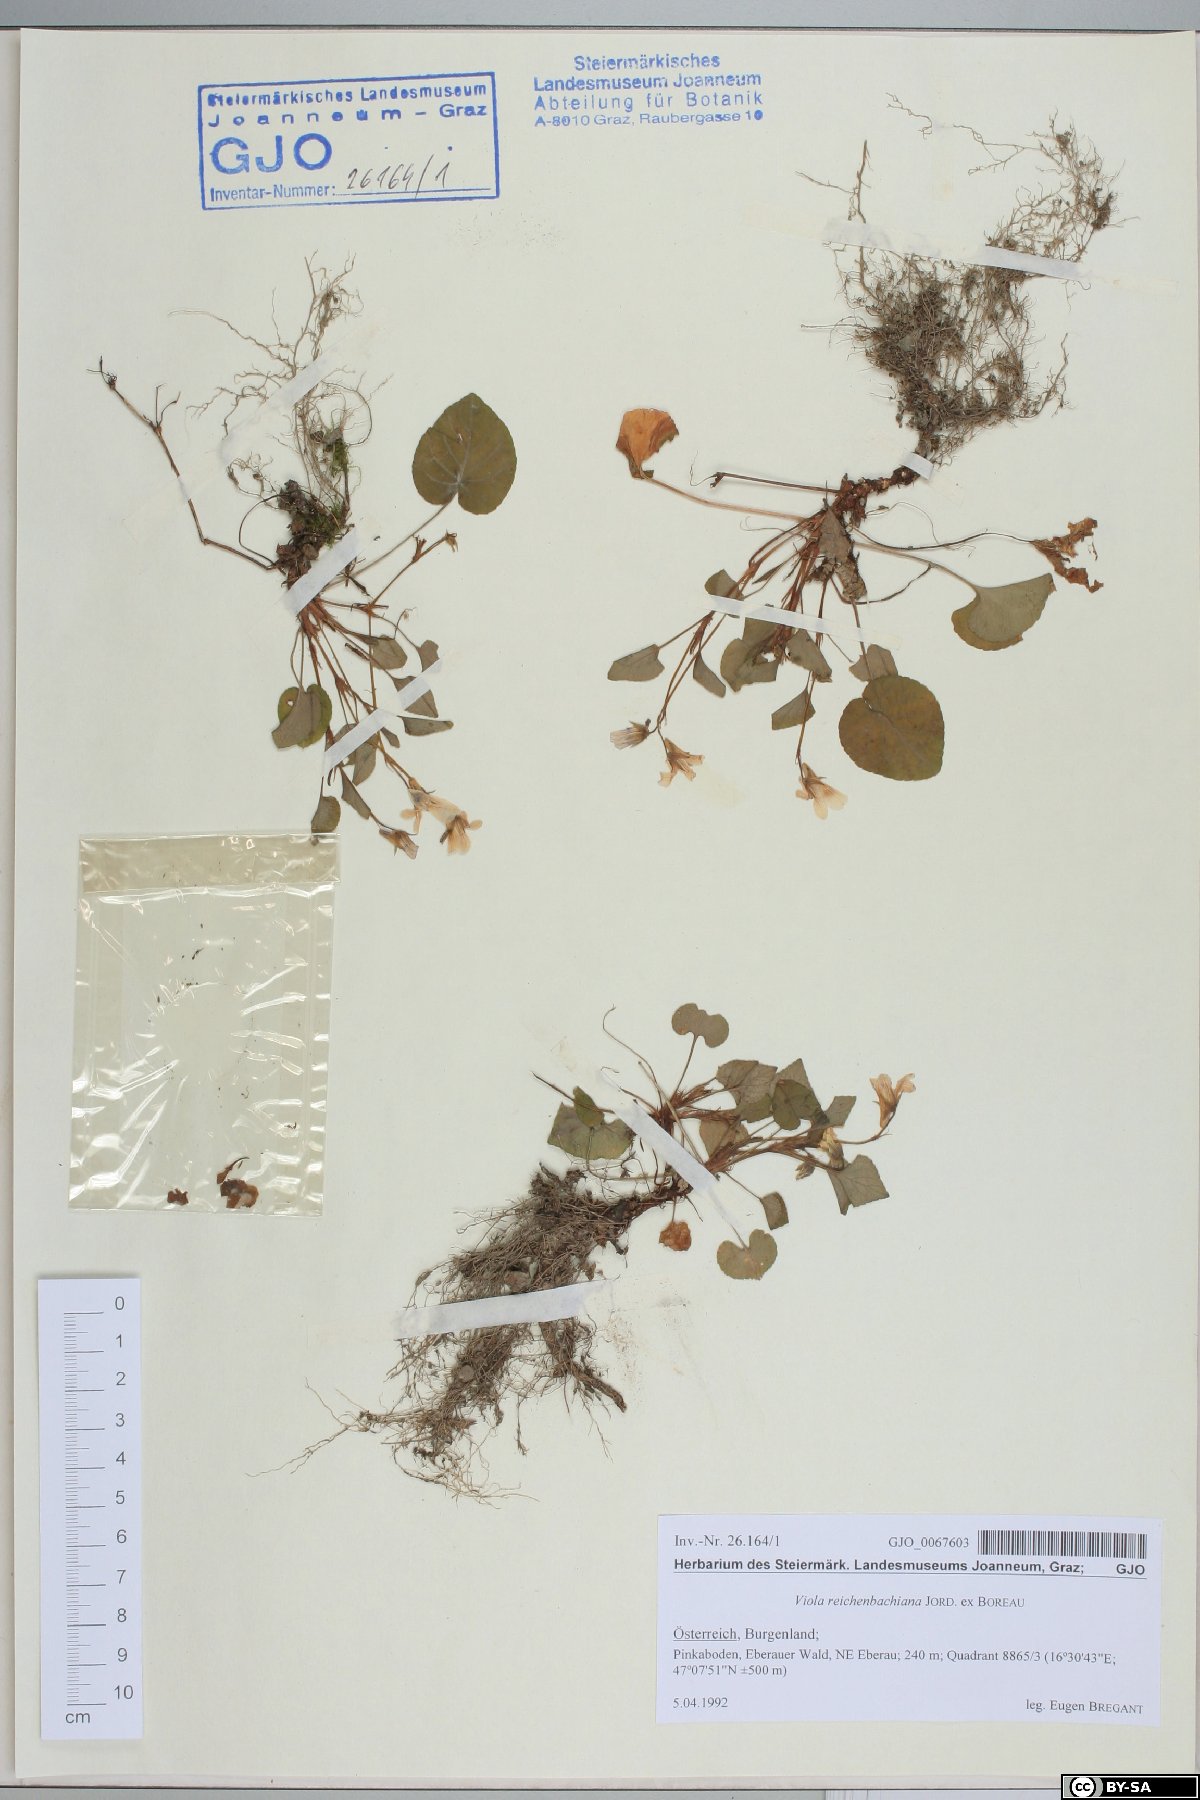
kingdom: Plantae
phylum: Tracheophyta
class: Magnoliopsida
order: Malpighiales
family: Violaceae
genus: Viola
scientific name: Viola reichenbachiana
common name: Early dog-violet
